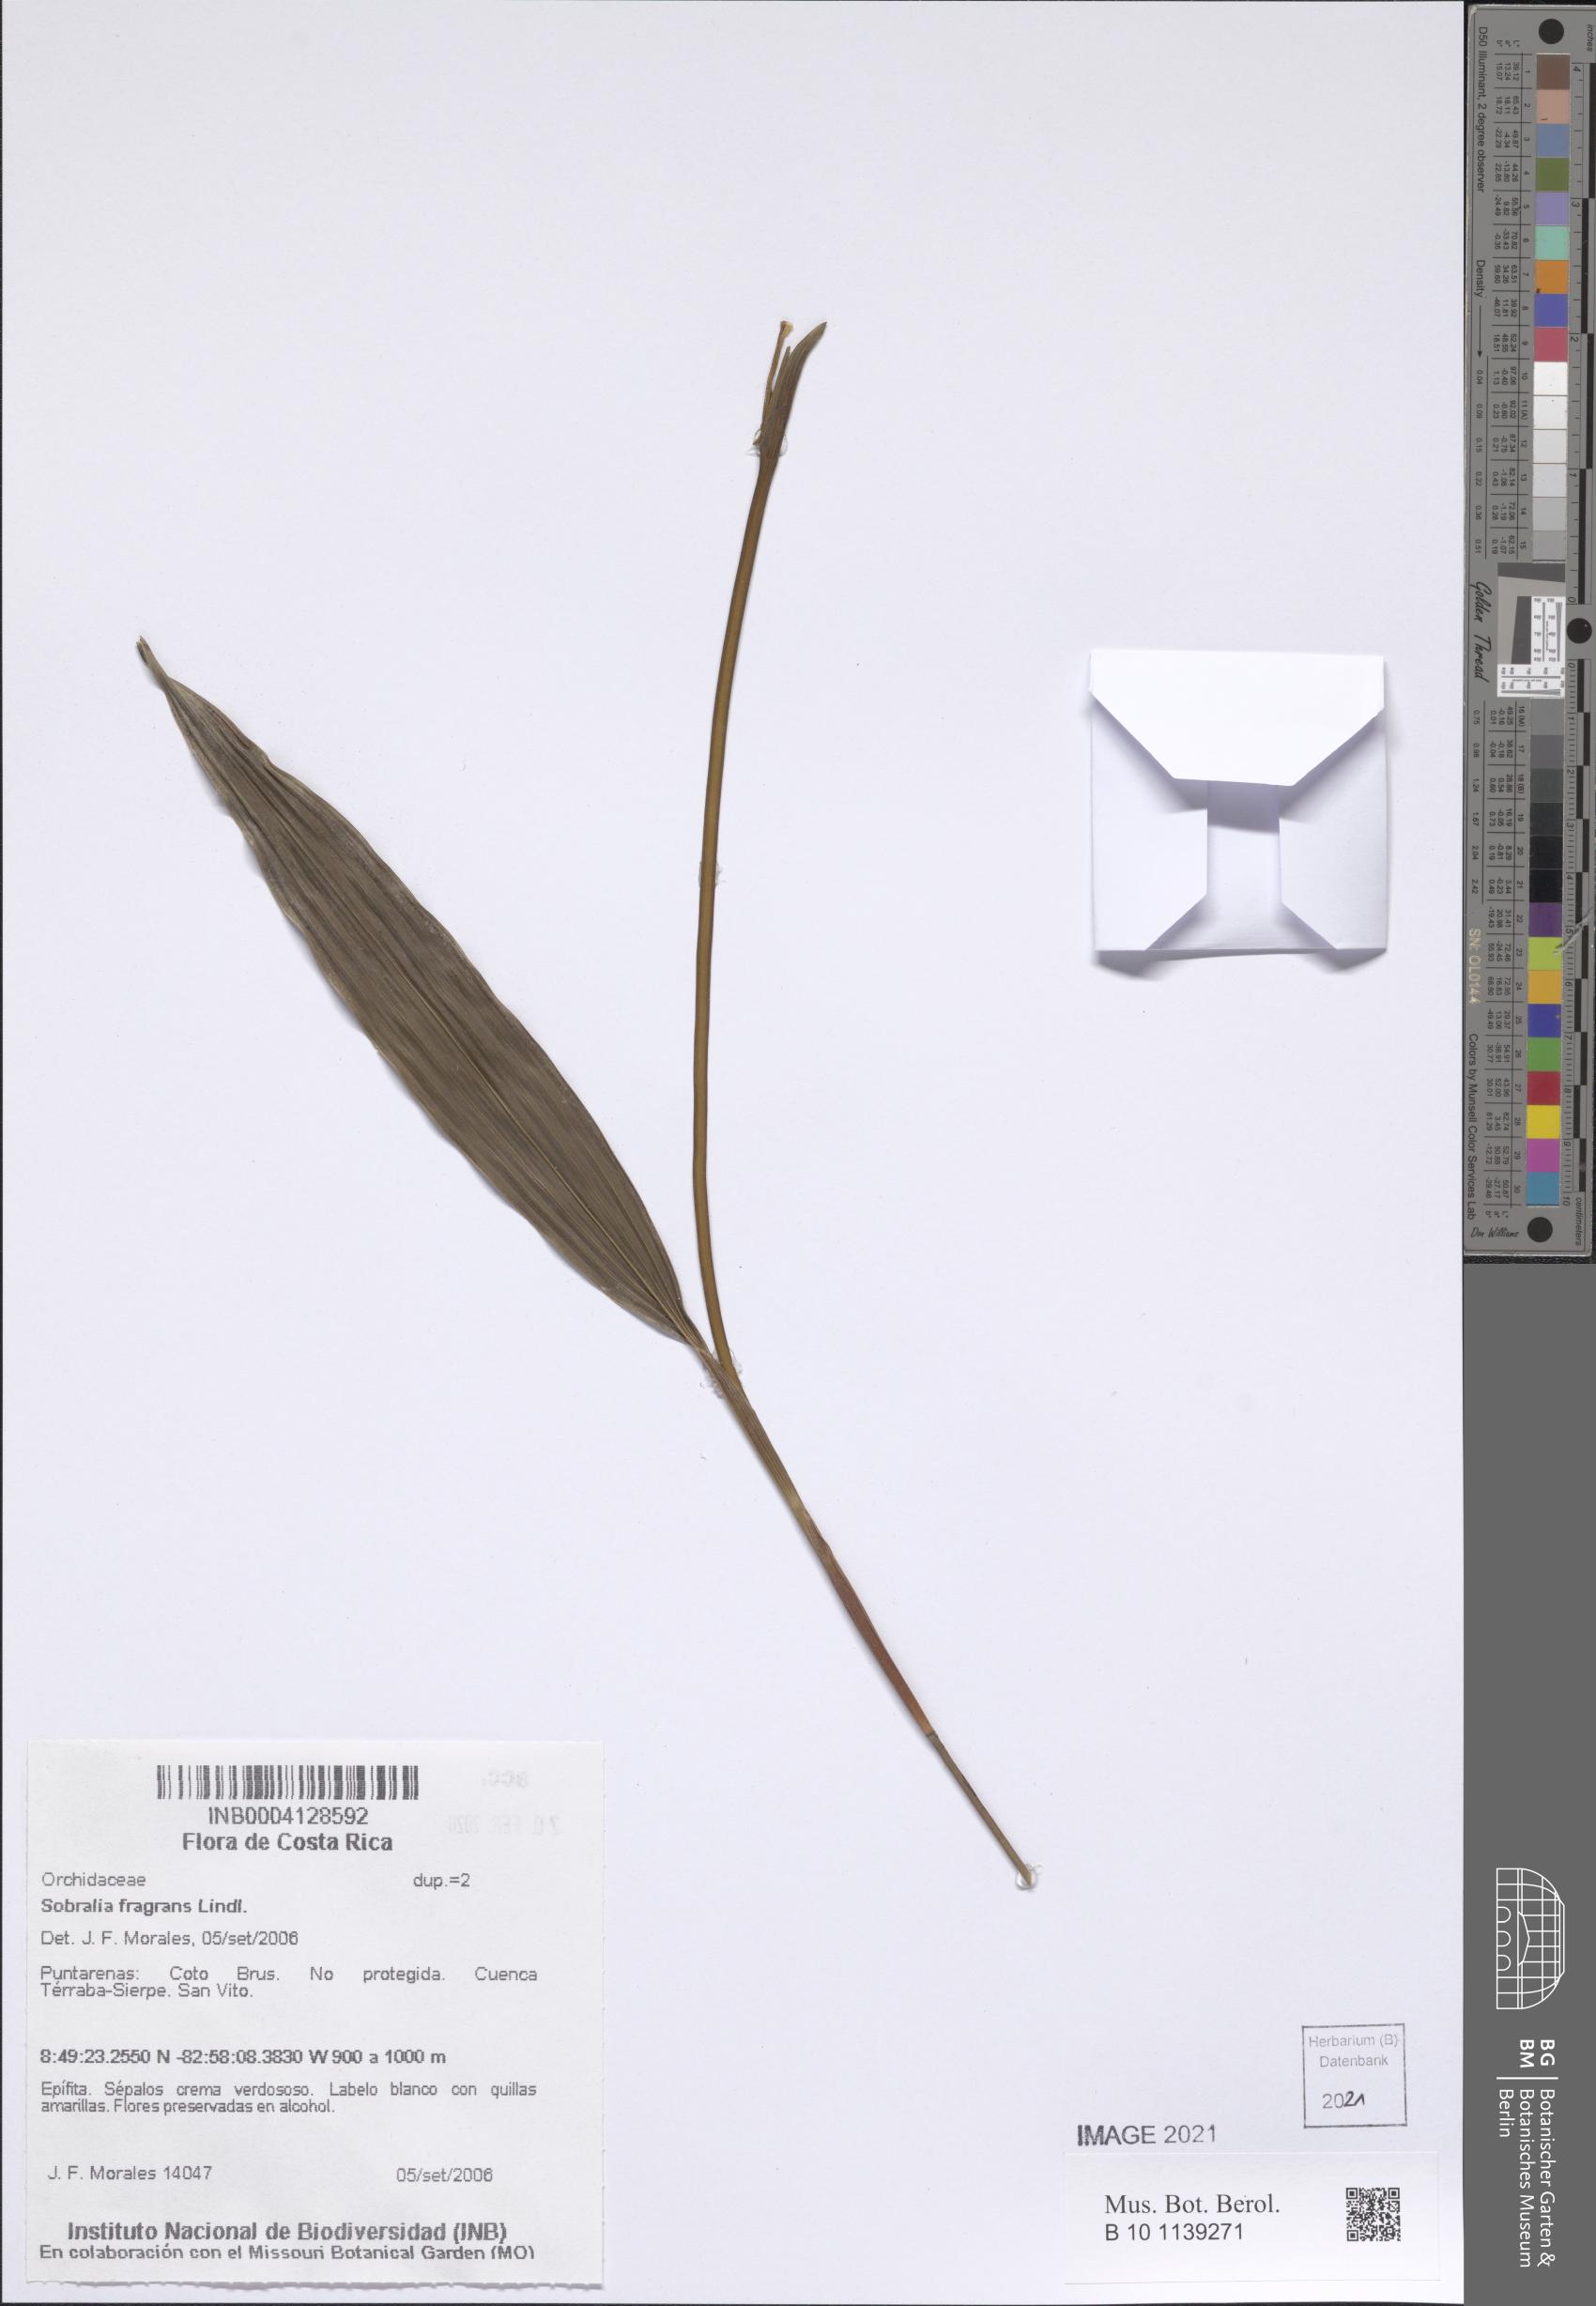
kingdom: Plantae
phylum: Tracheophyta
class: Liliopsida
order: Asparagales
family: Orchidaceae
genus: Sobralia
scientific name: Sobralia fragrans
